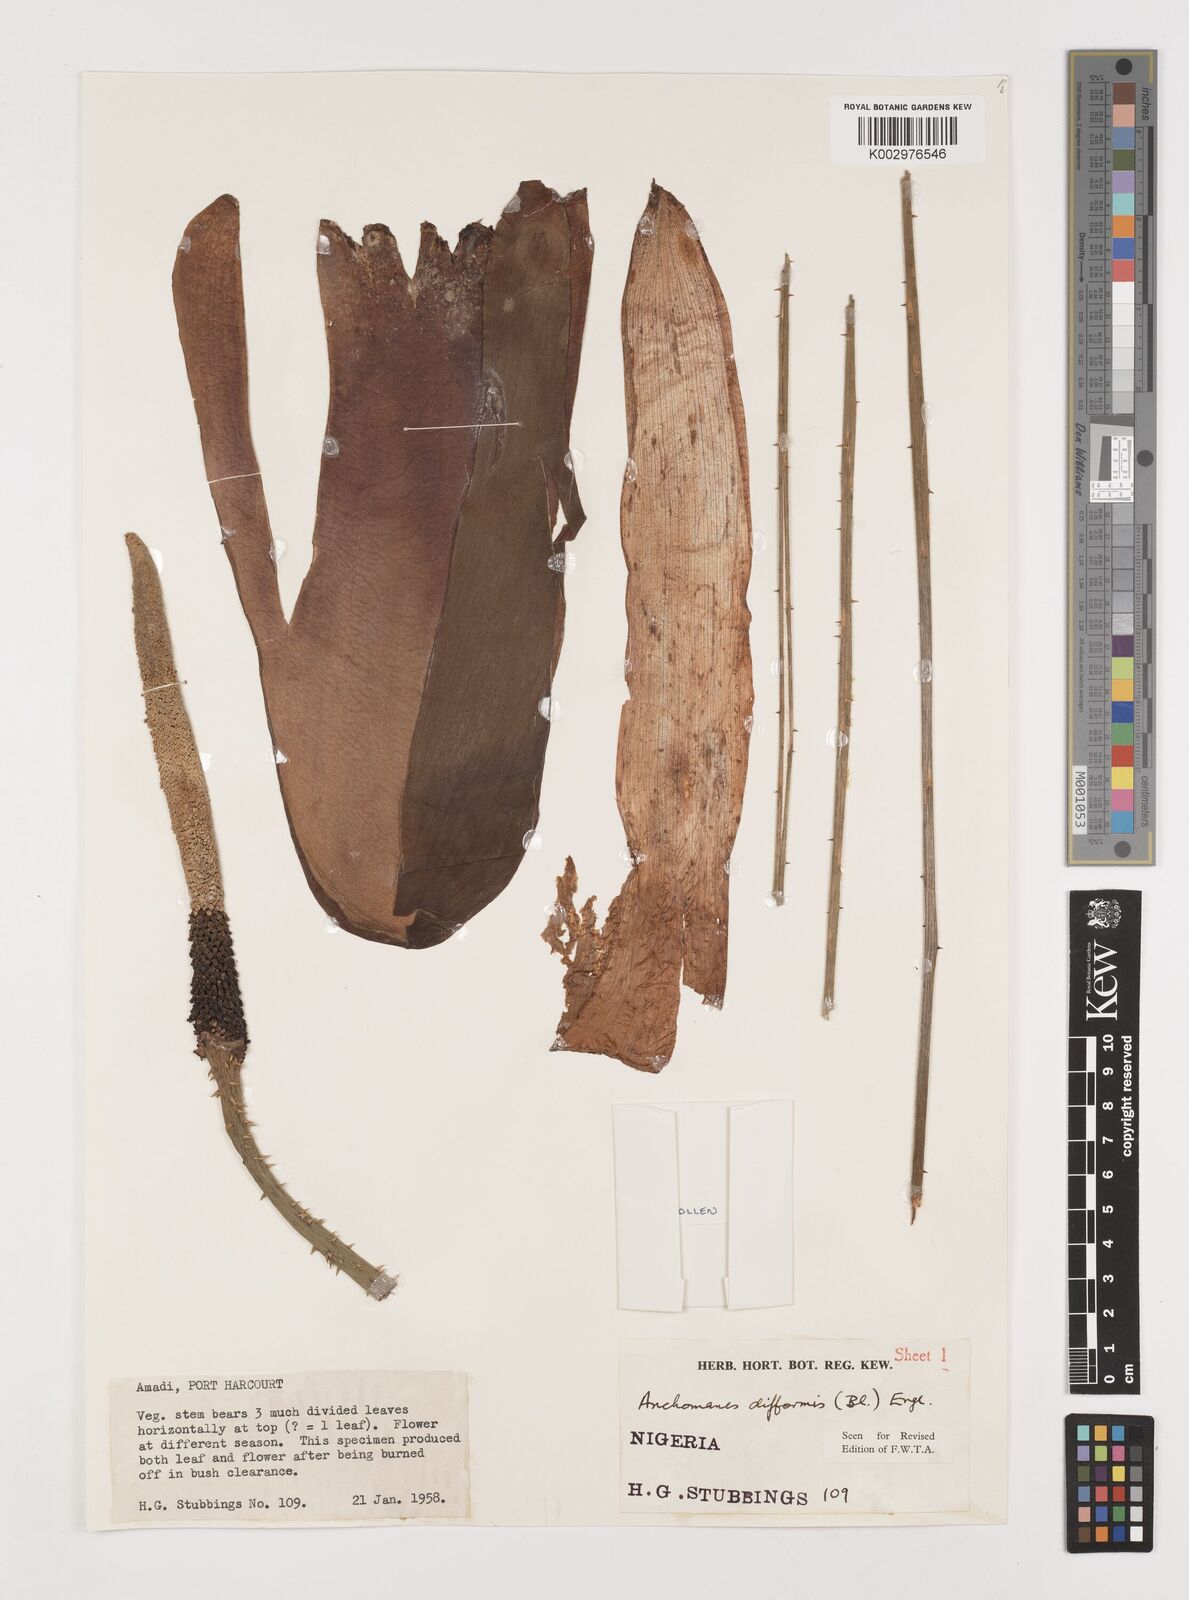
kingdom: Plantae
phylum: Tracheophyta
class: Liliopsida
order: Alismatales
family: Araceae
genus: Anchomanes
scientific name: Anchomanes difformis
